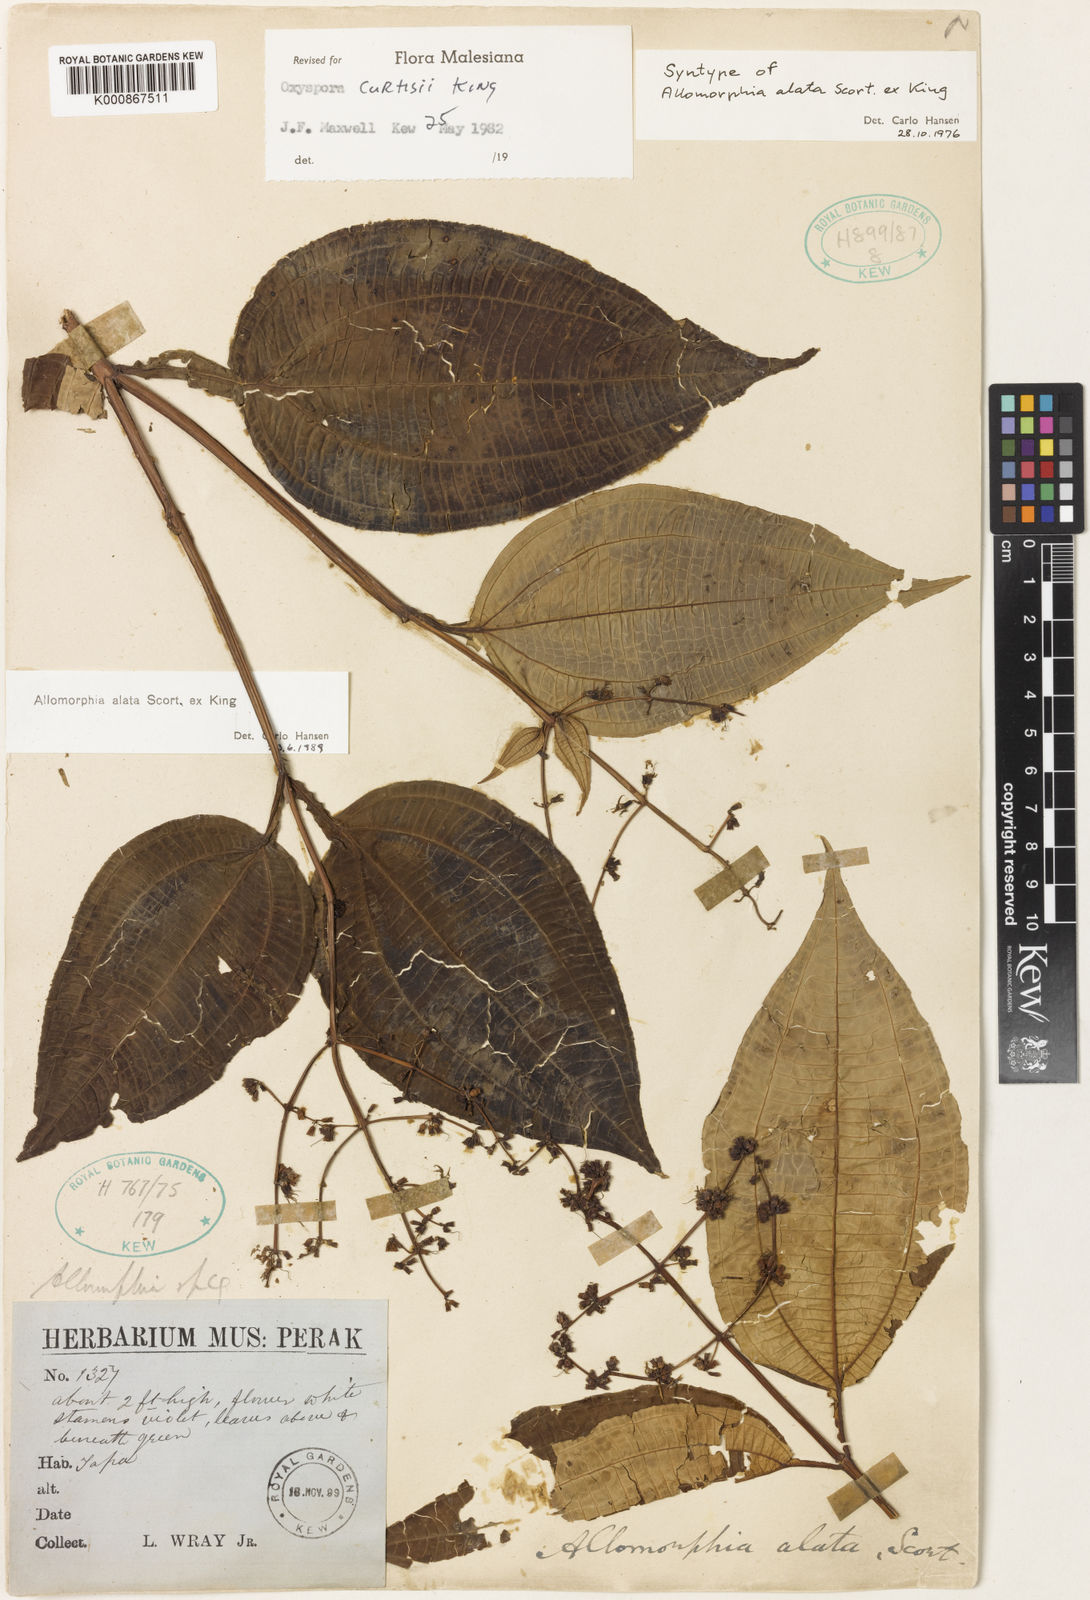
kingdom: Plantae
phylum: Tracheophyta
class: Magnoliopsida
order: Myrtales
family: Melastomataceae
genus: Allomorphia
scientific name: Allomorphia curtisii
